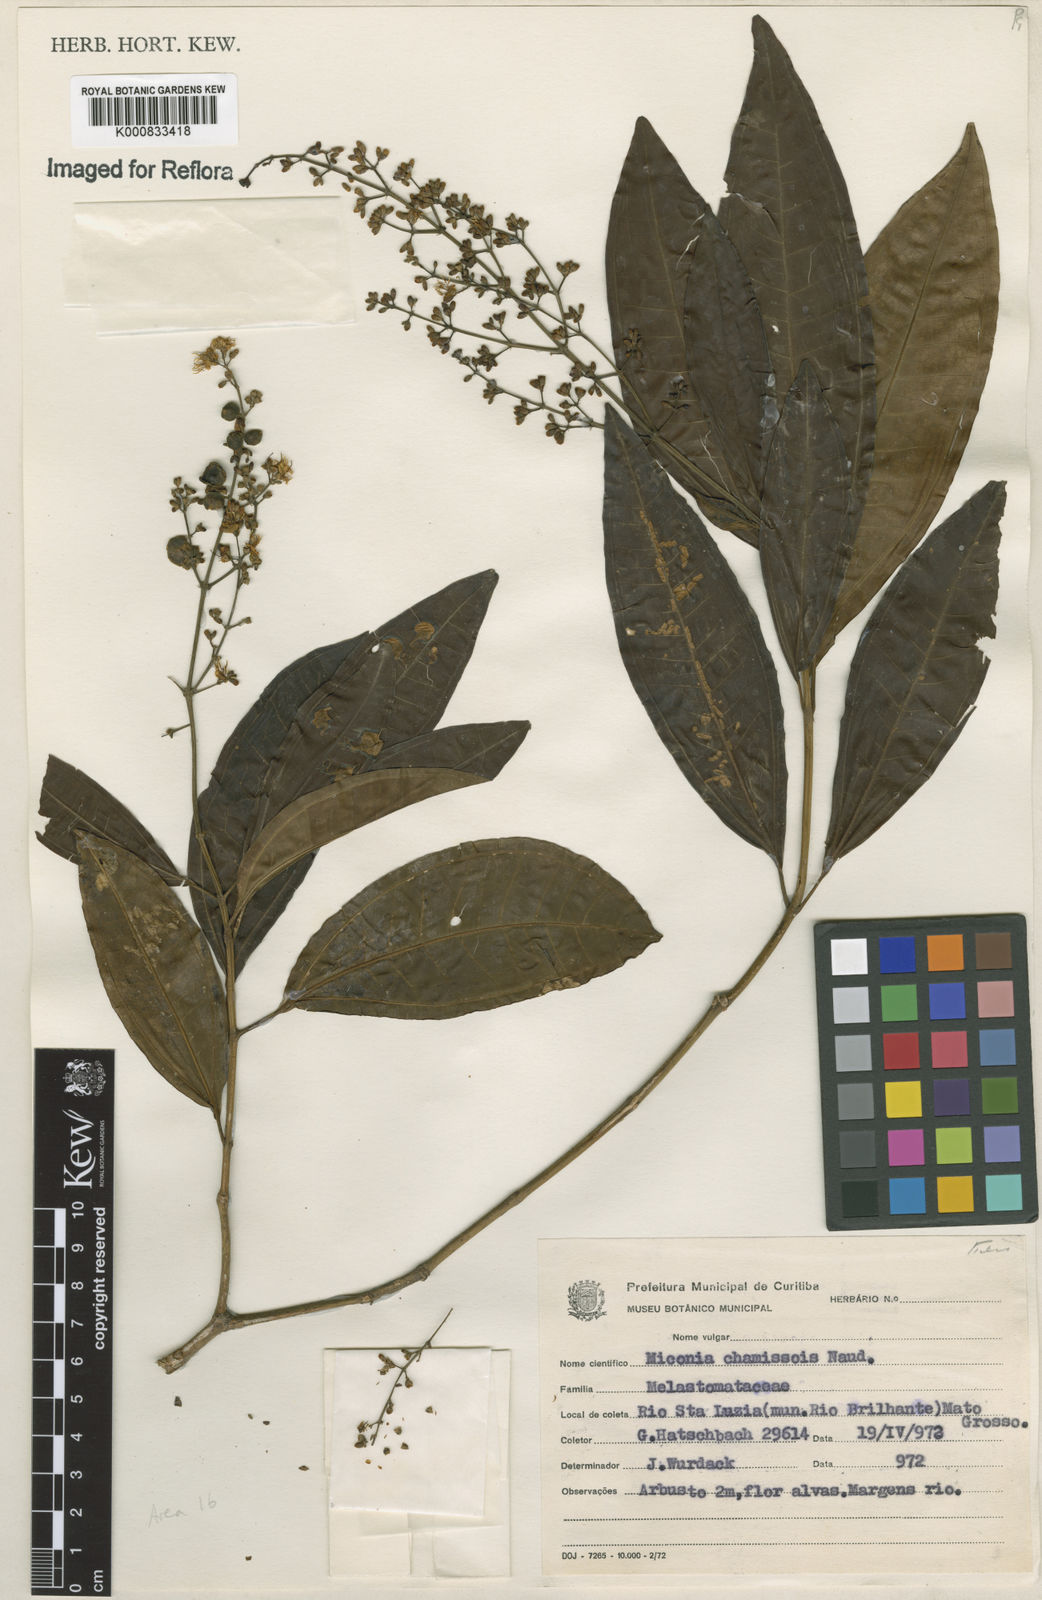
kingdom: Plantae
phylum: Tracheophyta
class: Magnoliopsida
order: Myrtales
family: Melastomataceae
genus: Miconia
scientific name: Miconia chamissois
